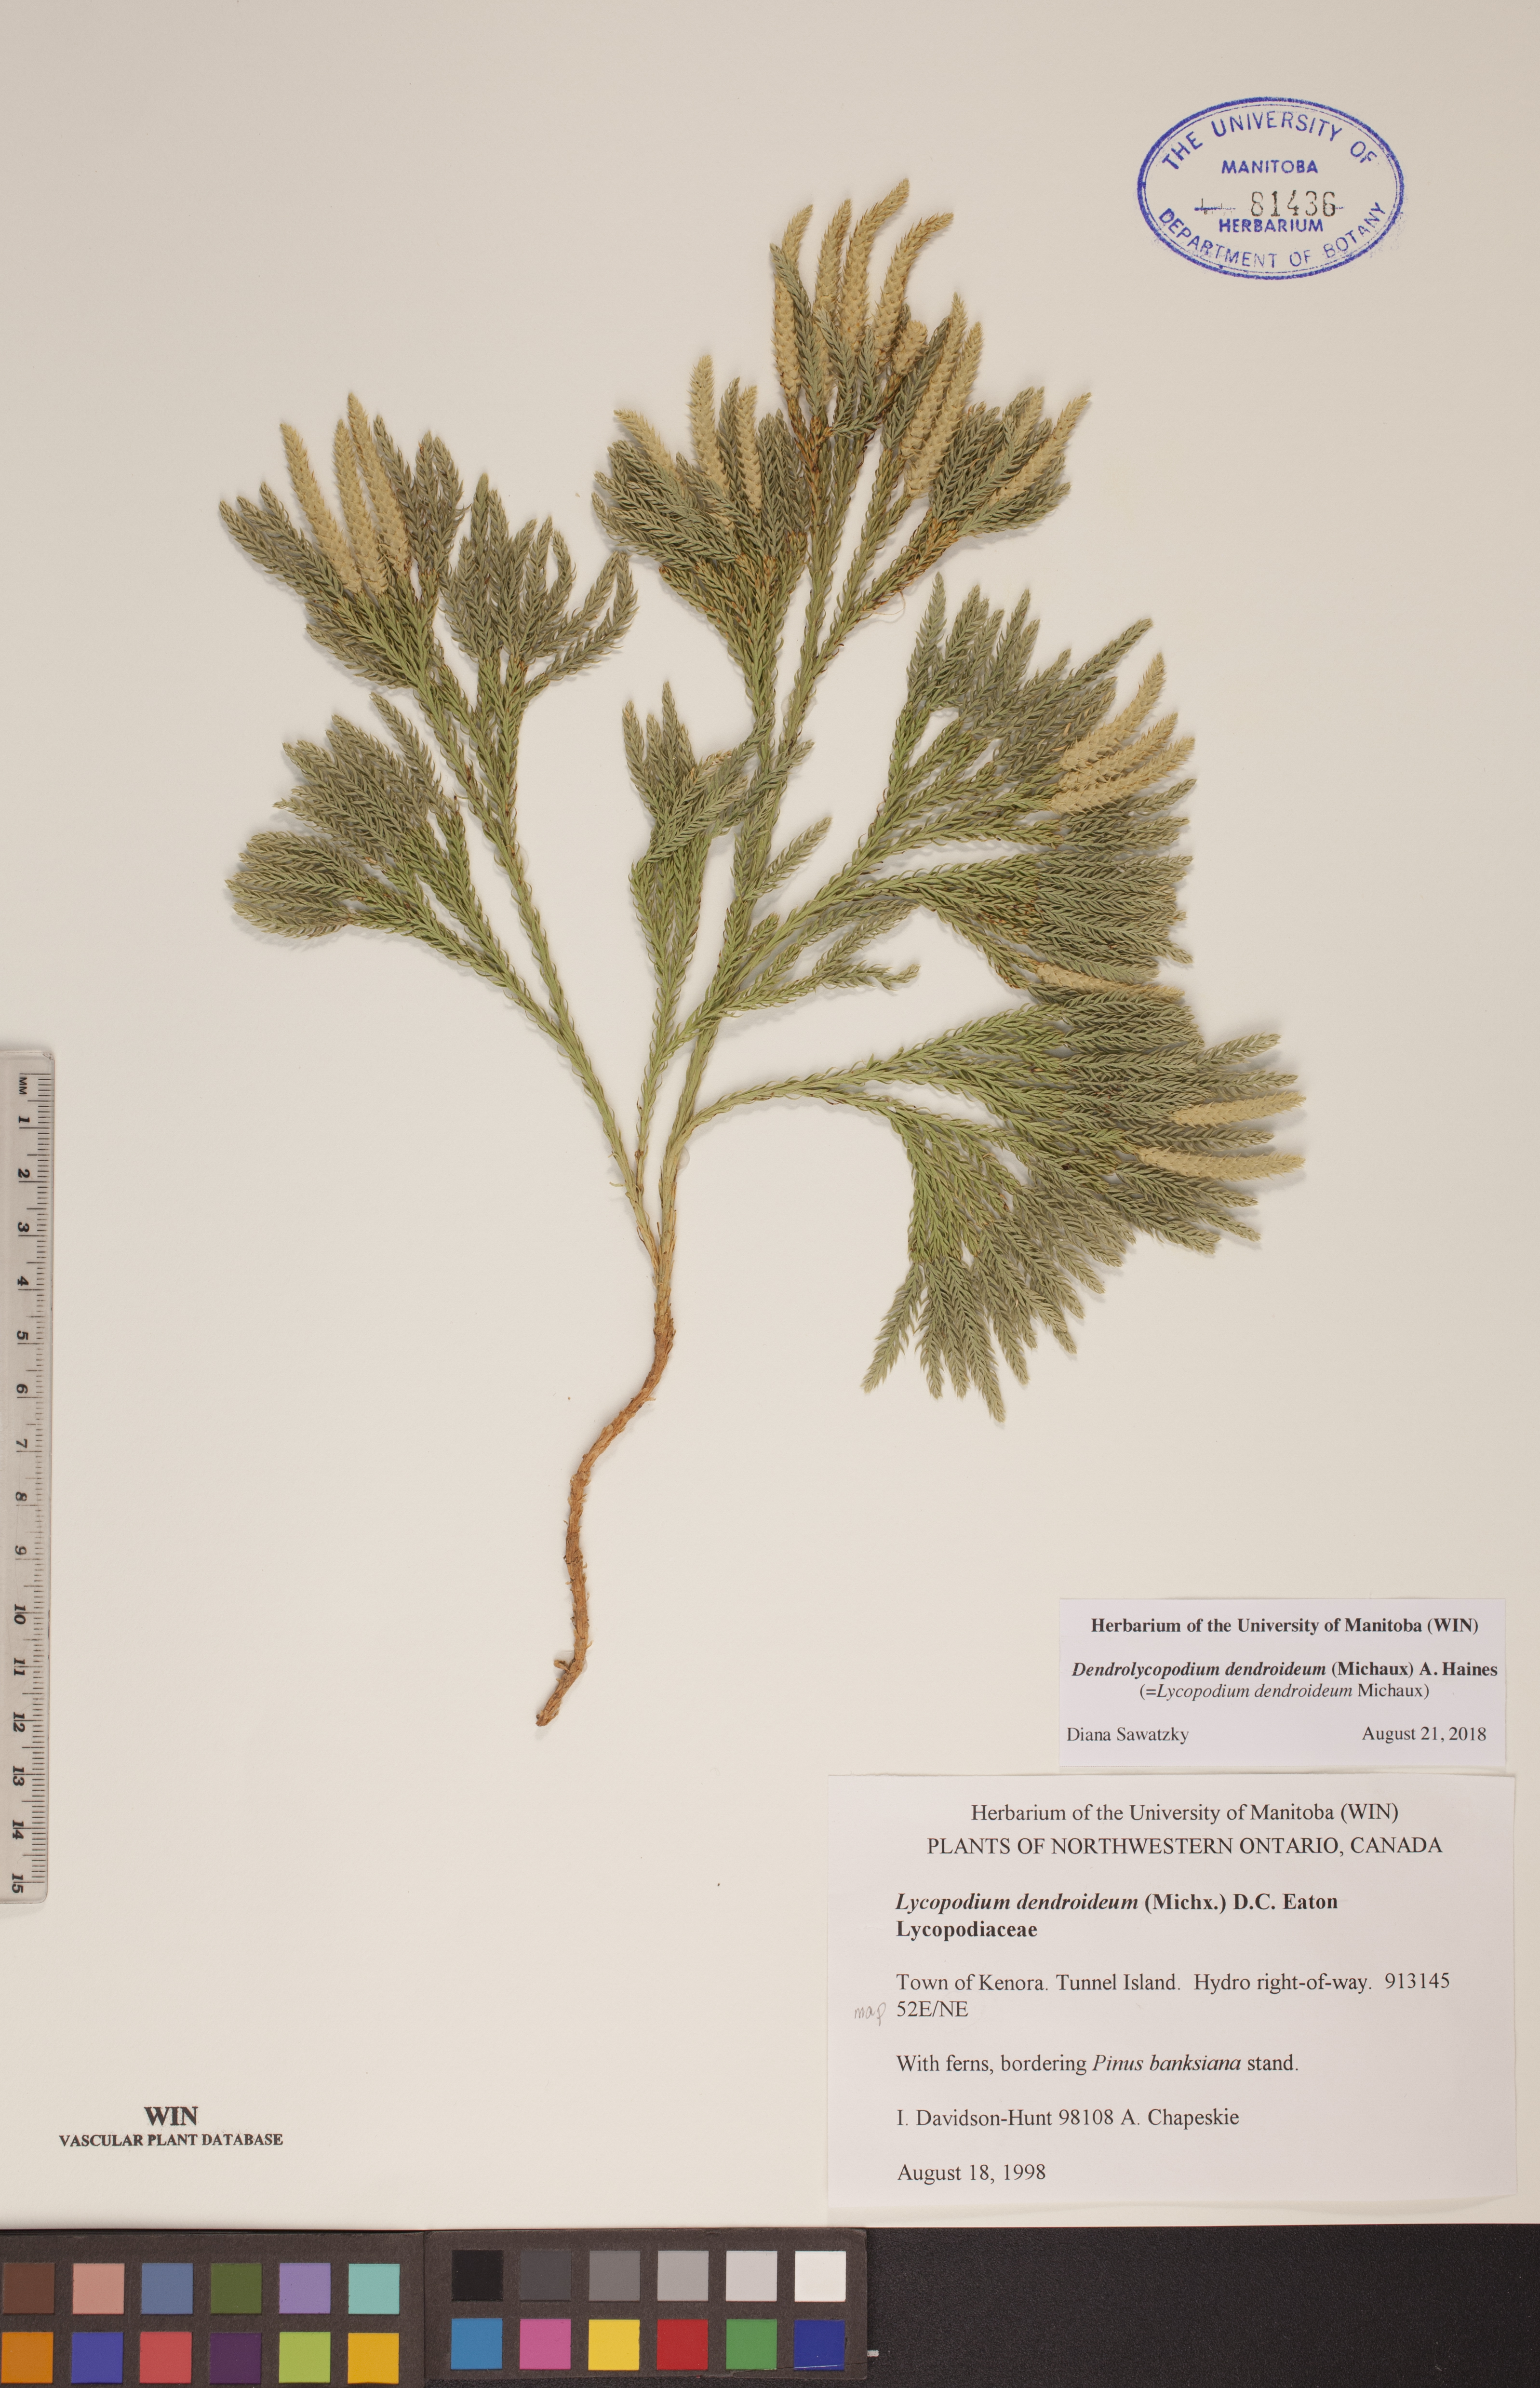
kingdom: Plantae
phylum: Tracheophyta
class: Lycopodiopsida
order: Lycopodiales
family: Lycopodiaceae
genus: Dendrolycopodium
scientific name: Dendrolycopodium dendroideum
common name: Northern tree-clubmoss
